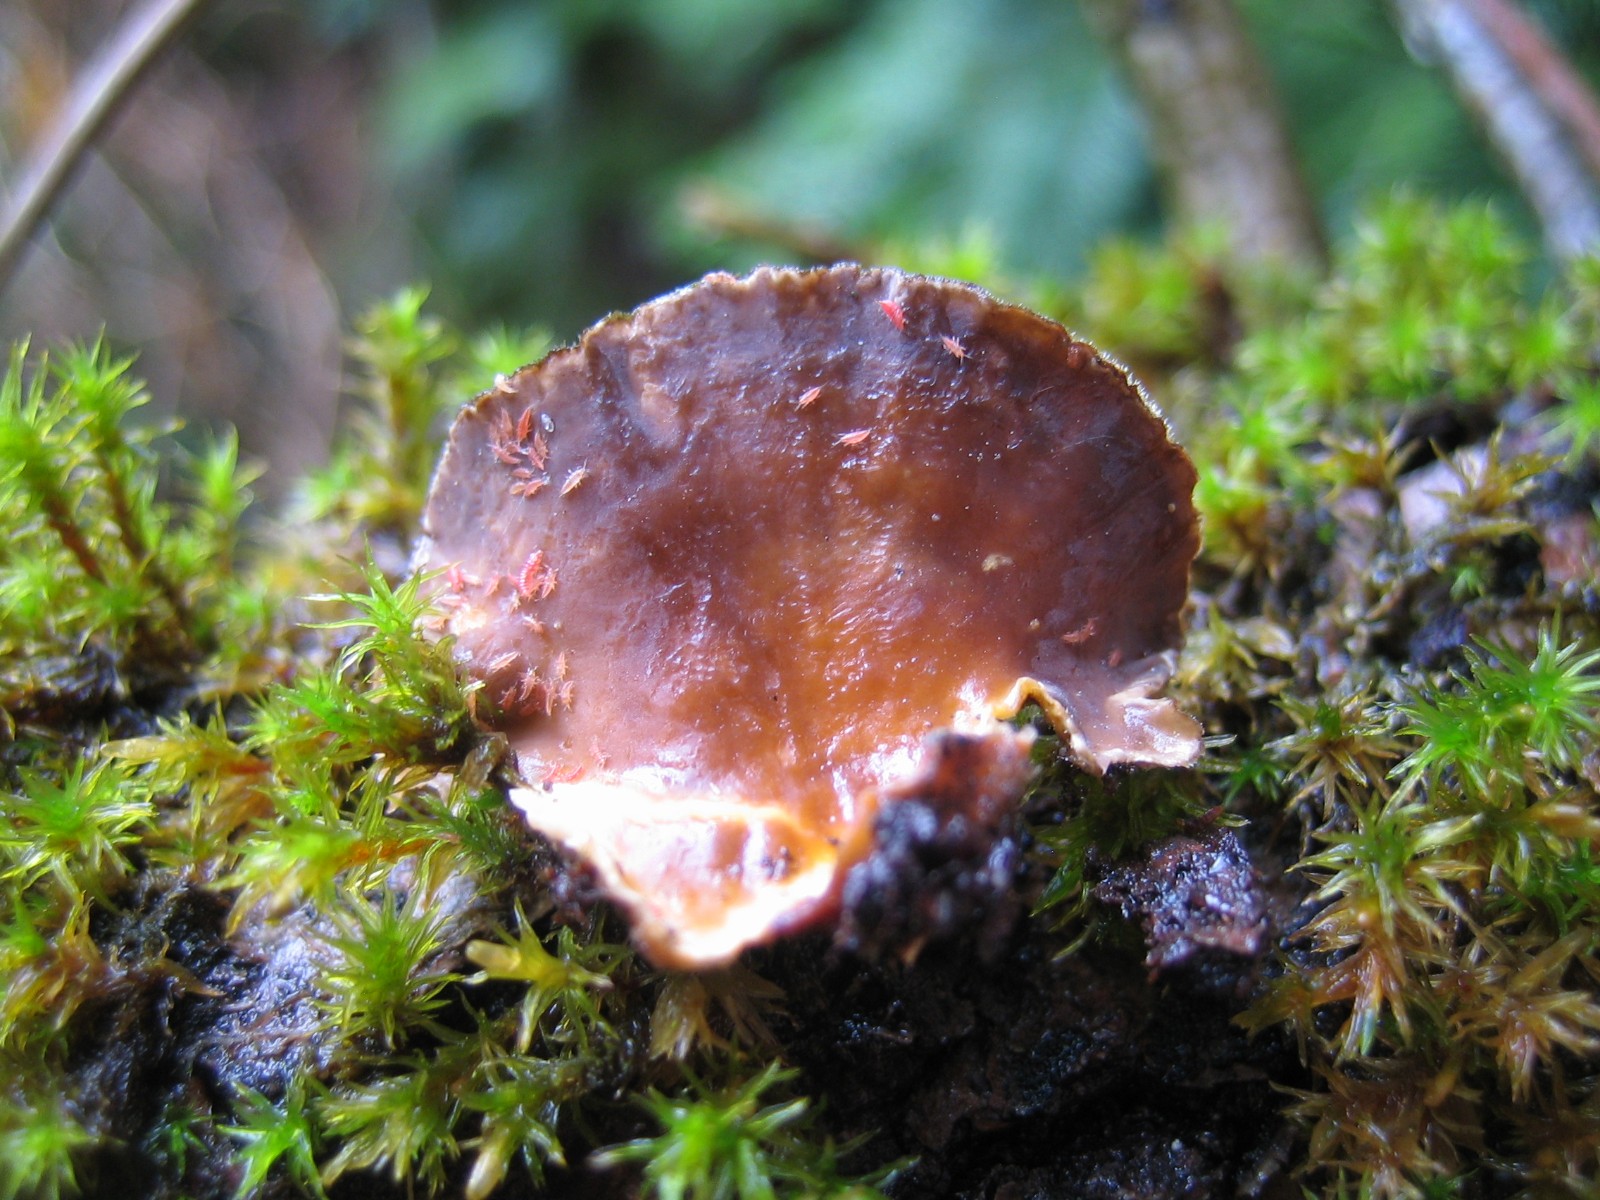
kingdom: Fungi
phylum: Basidiomycota
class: Agaricomycetes
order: Russulales
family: Stereaceae
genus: Stereum
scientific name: Stereum hirsutum
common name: håret lædersvamp
